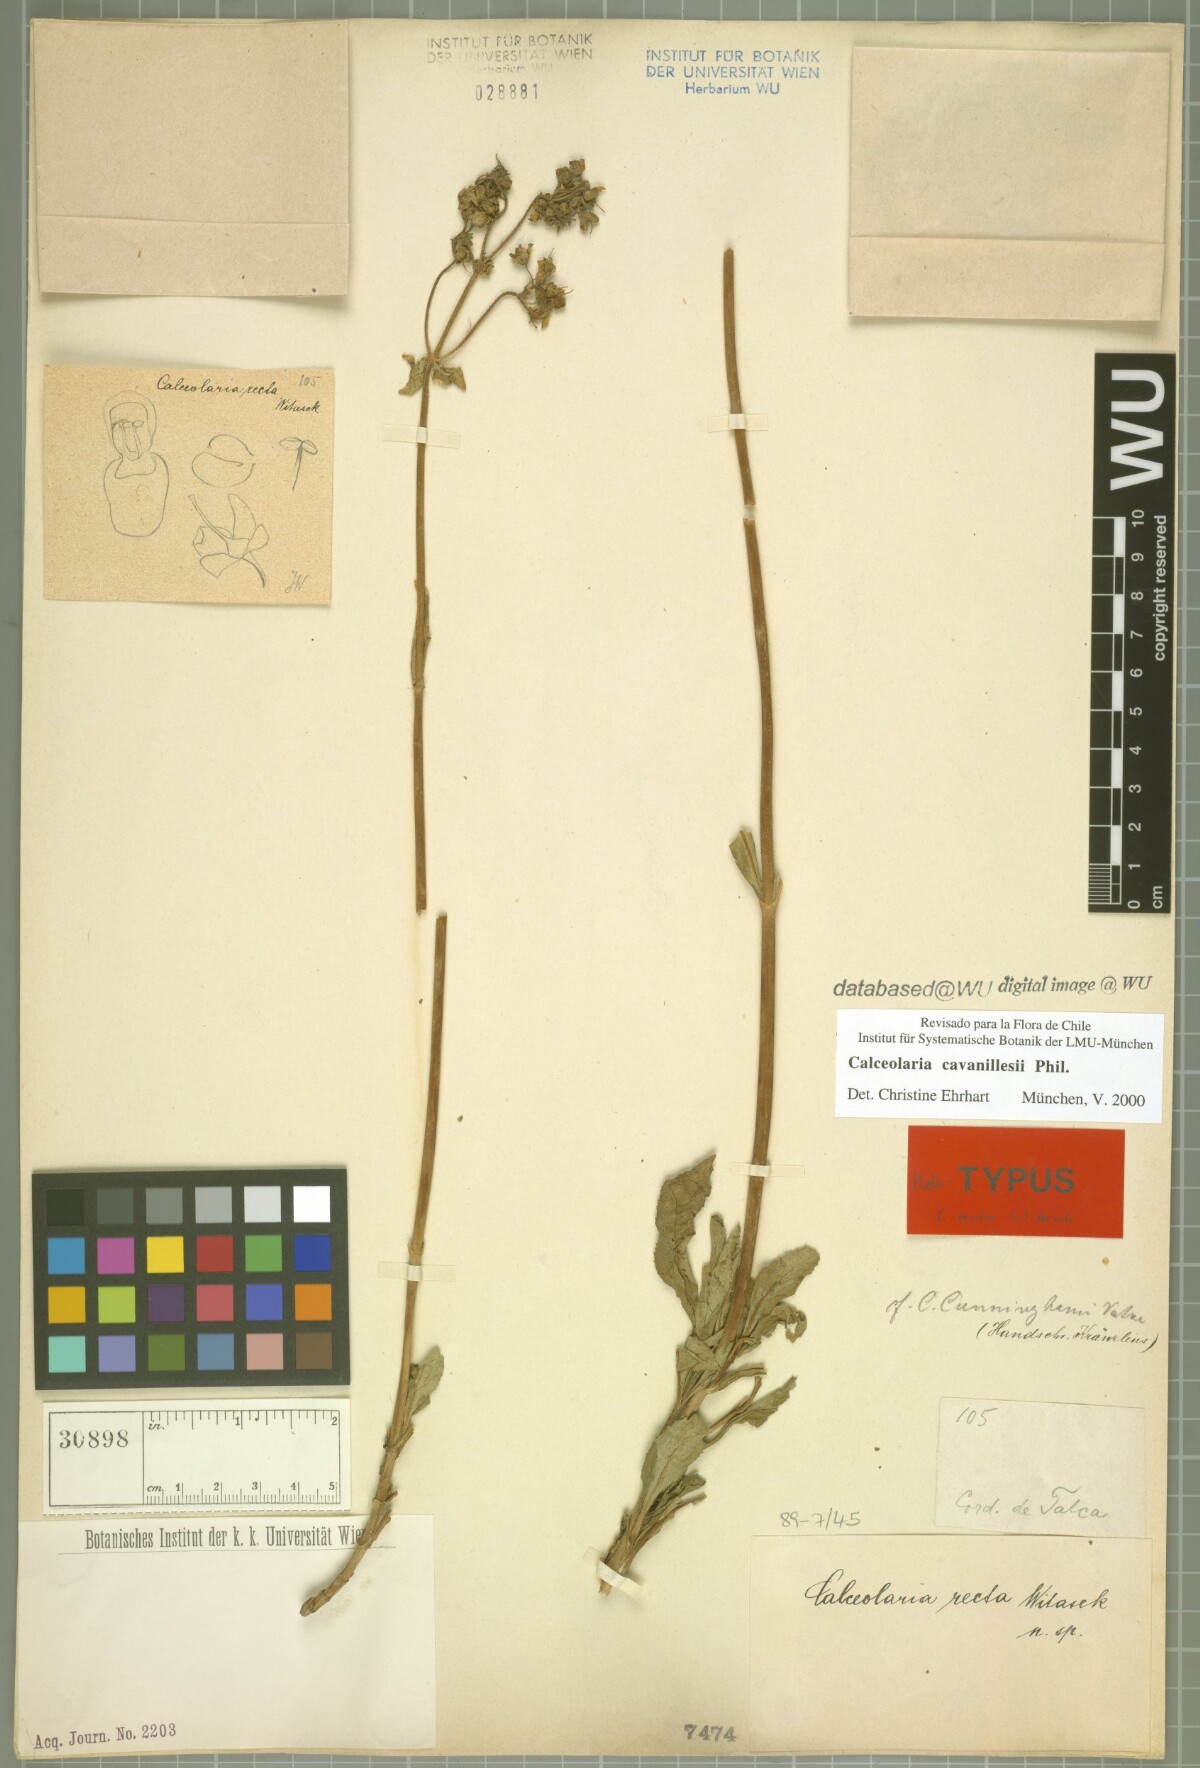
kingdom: Plantae
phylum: Tracheophyta
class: Magnoliopsida
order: Lamiales
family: Calceolariaceae
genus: Calceolaria
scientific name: Calceolaria cavanillesii
